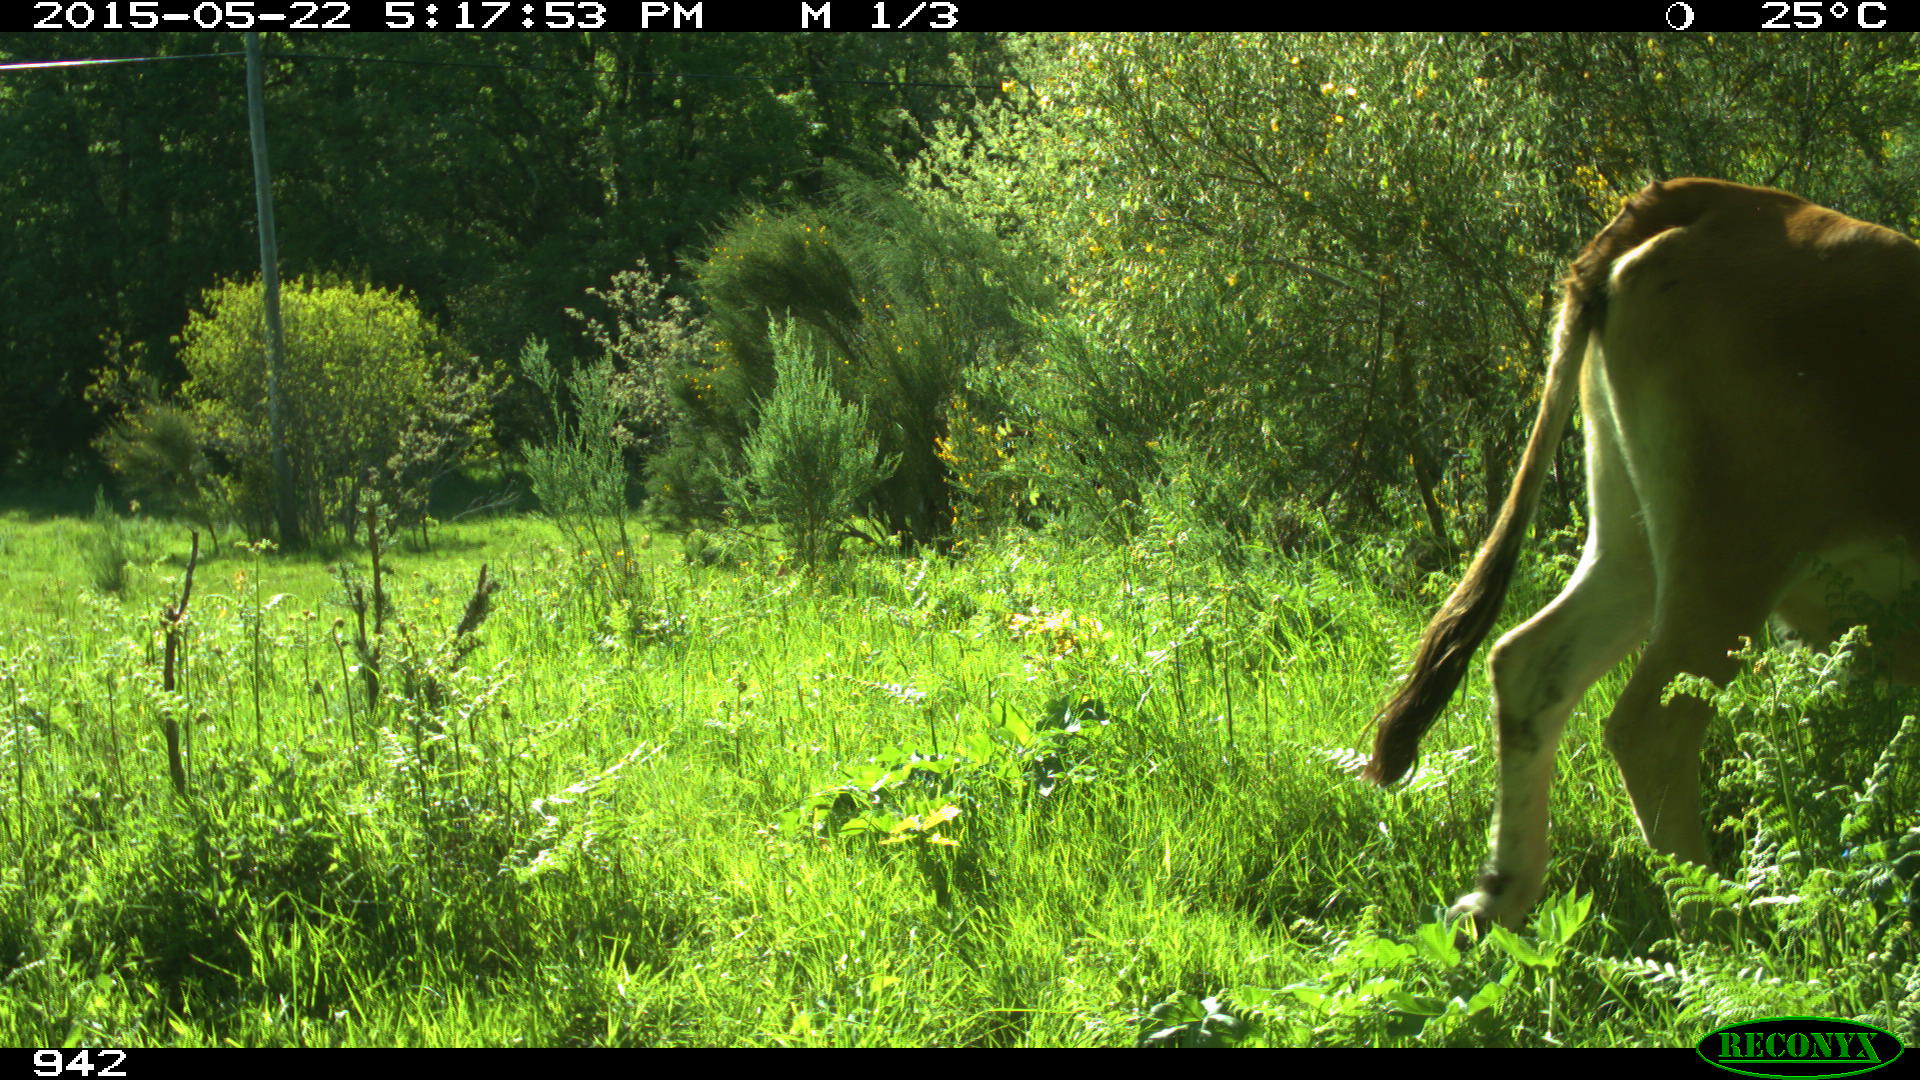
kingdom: Animalia
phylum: Chordata
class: Mammalia
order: Artiodactyla
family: Bovidae
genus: Bos
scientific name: Bos taurus
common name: Domesticated cattle
